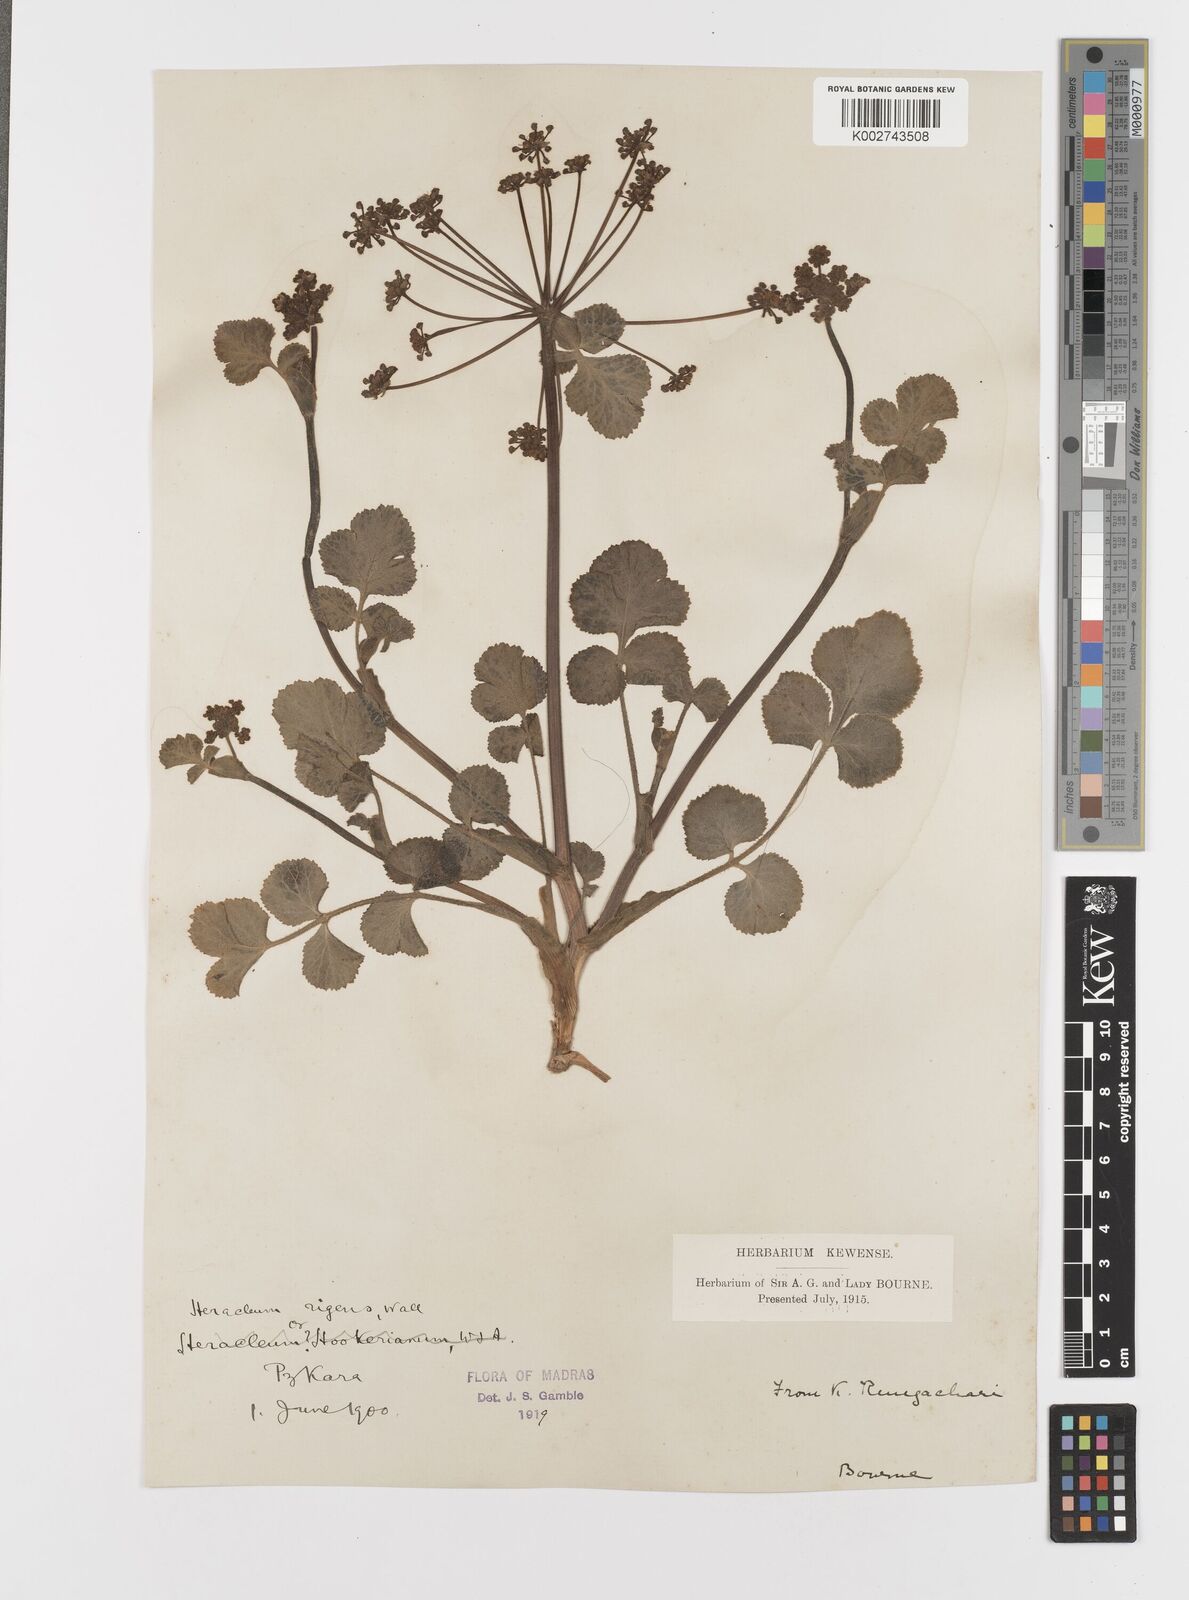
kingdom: Plantae
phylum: Tracheophyta
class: Magnoliopsida
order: Apiales
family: Apiaceae
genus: Tetrataenium
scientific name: Tetrataenium rigens
